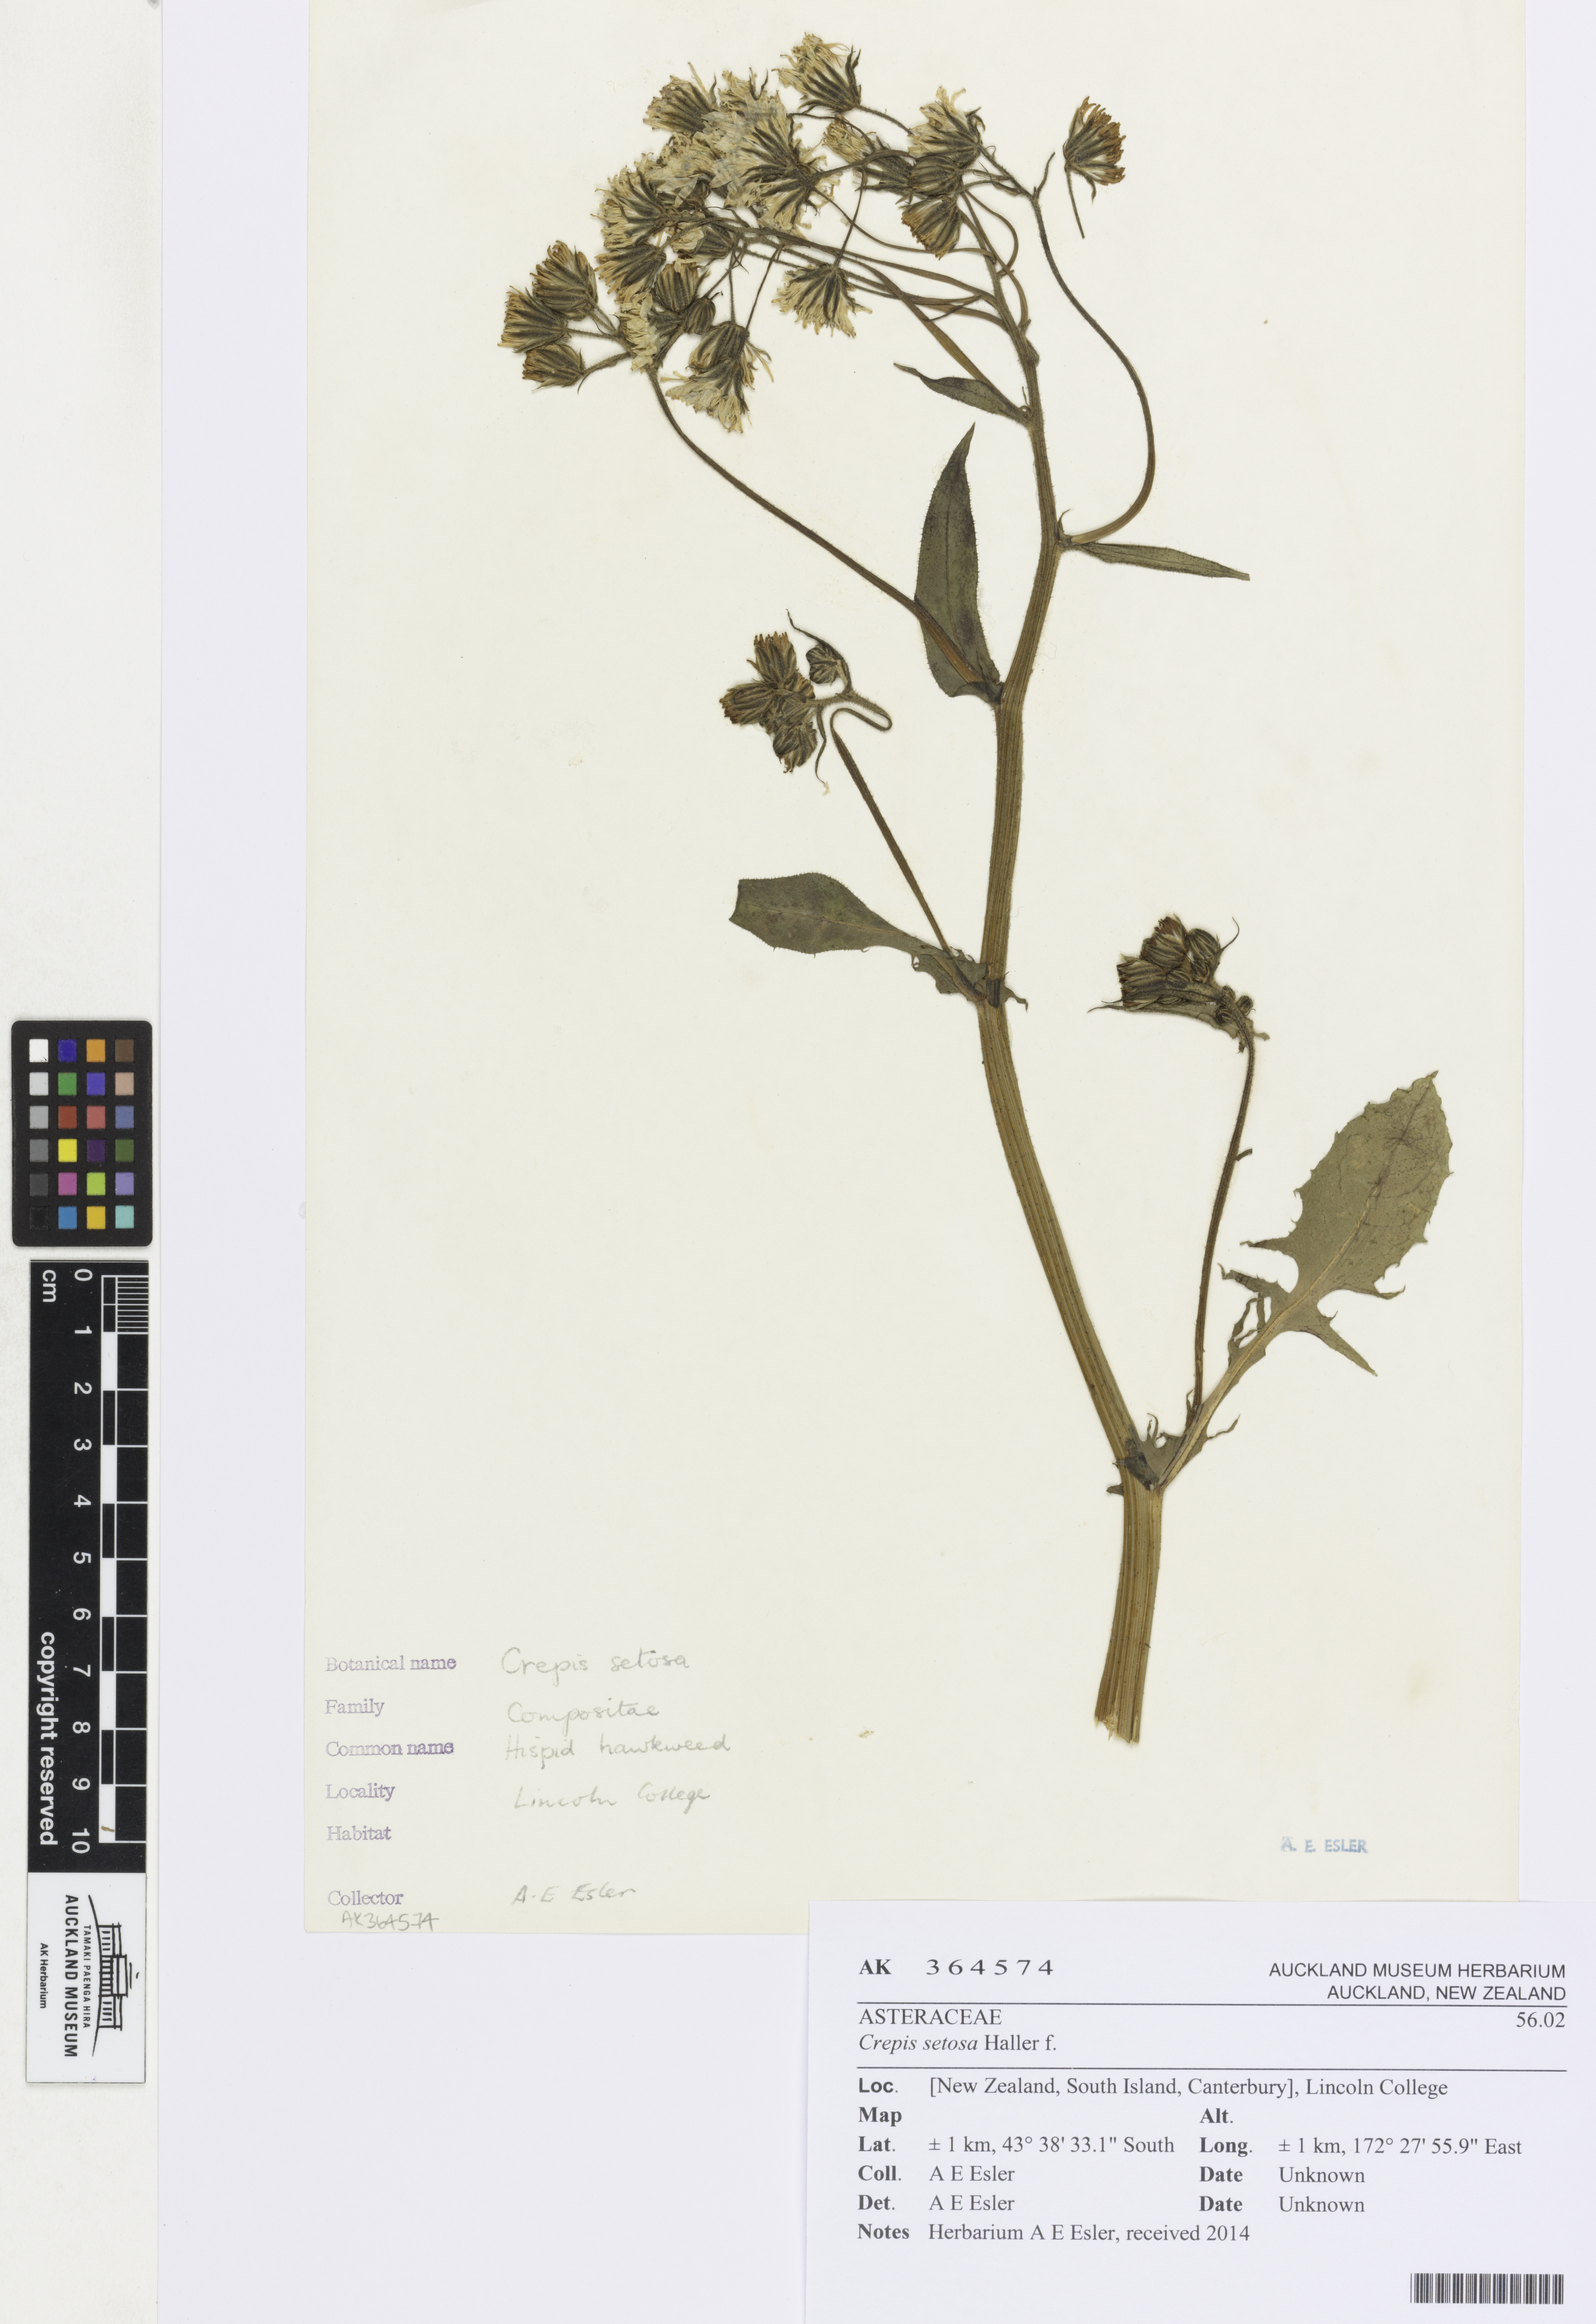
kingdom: Plantae
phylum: Tracheophyta
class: Magnoliopsida
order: Asterales
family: Asteraceae
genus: Crepis
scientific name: Crepis setosa
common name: Bristly hawk's-beard
